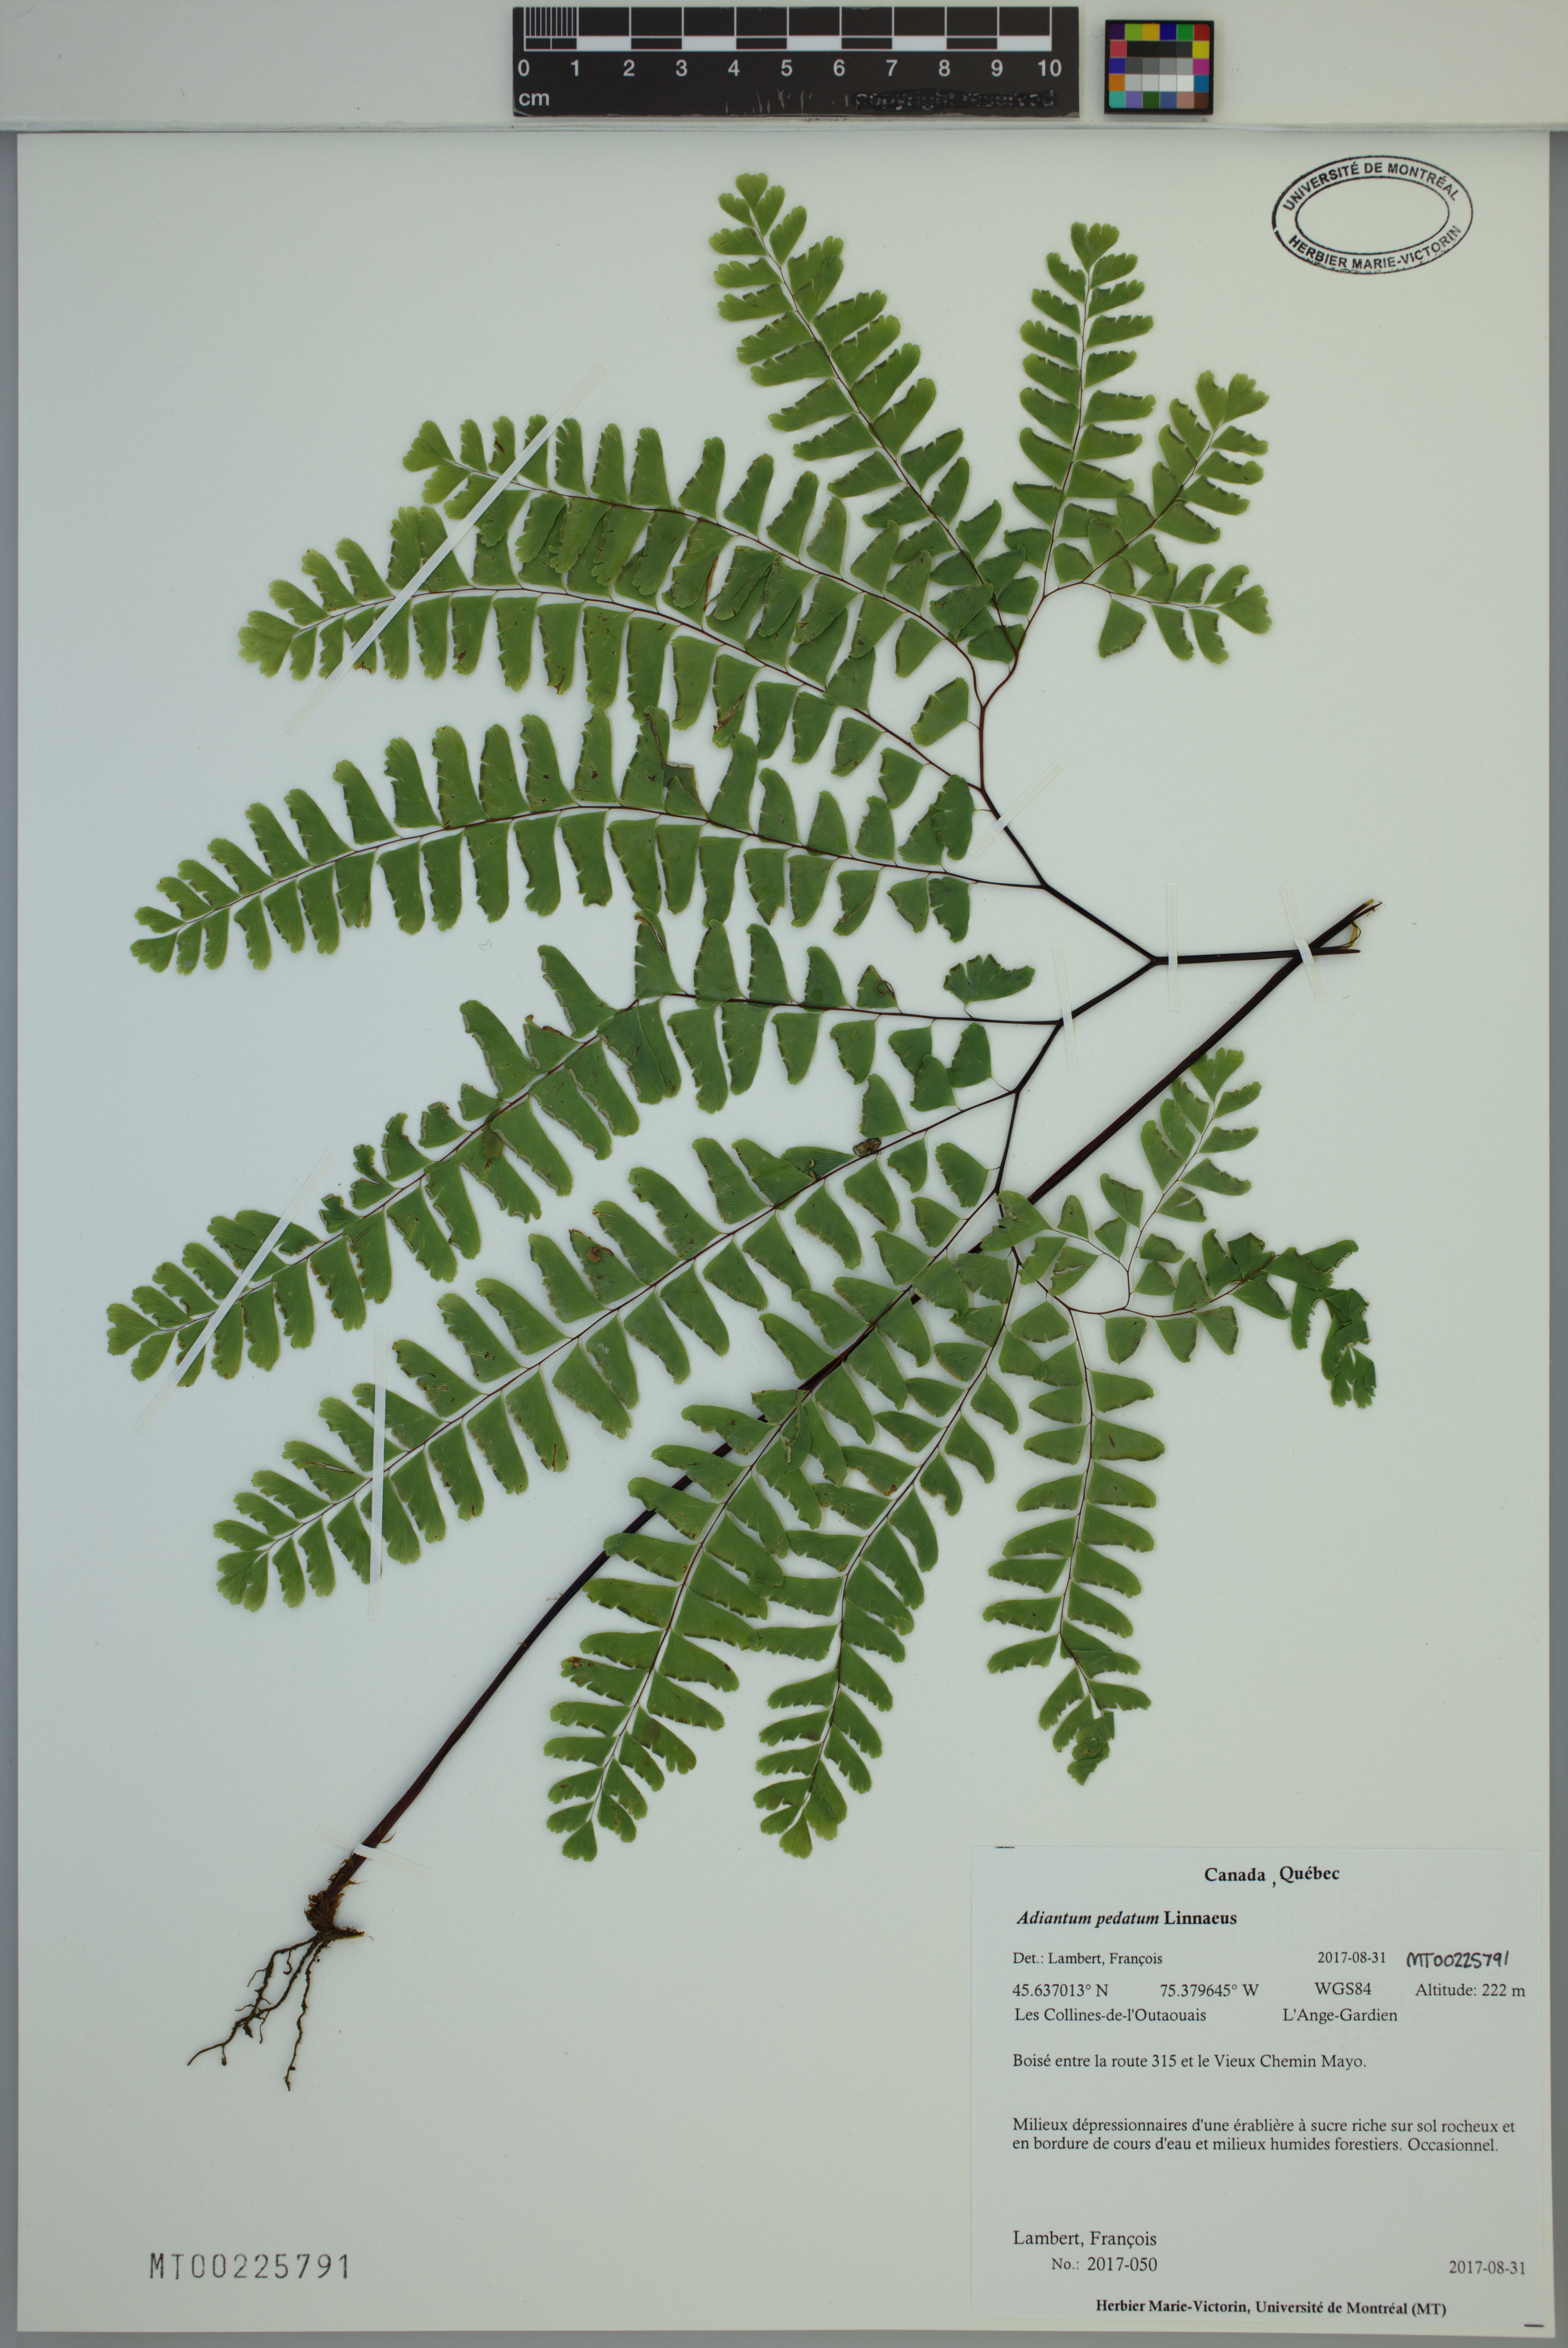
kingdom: Plantae
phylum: Tracheophyta
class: Polypodiopsida
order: Polypodiales
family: Pteridaceae
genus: Adiantum
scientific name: Adiantum pedatum
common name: Five-finger fern
